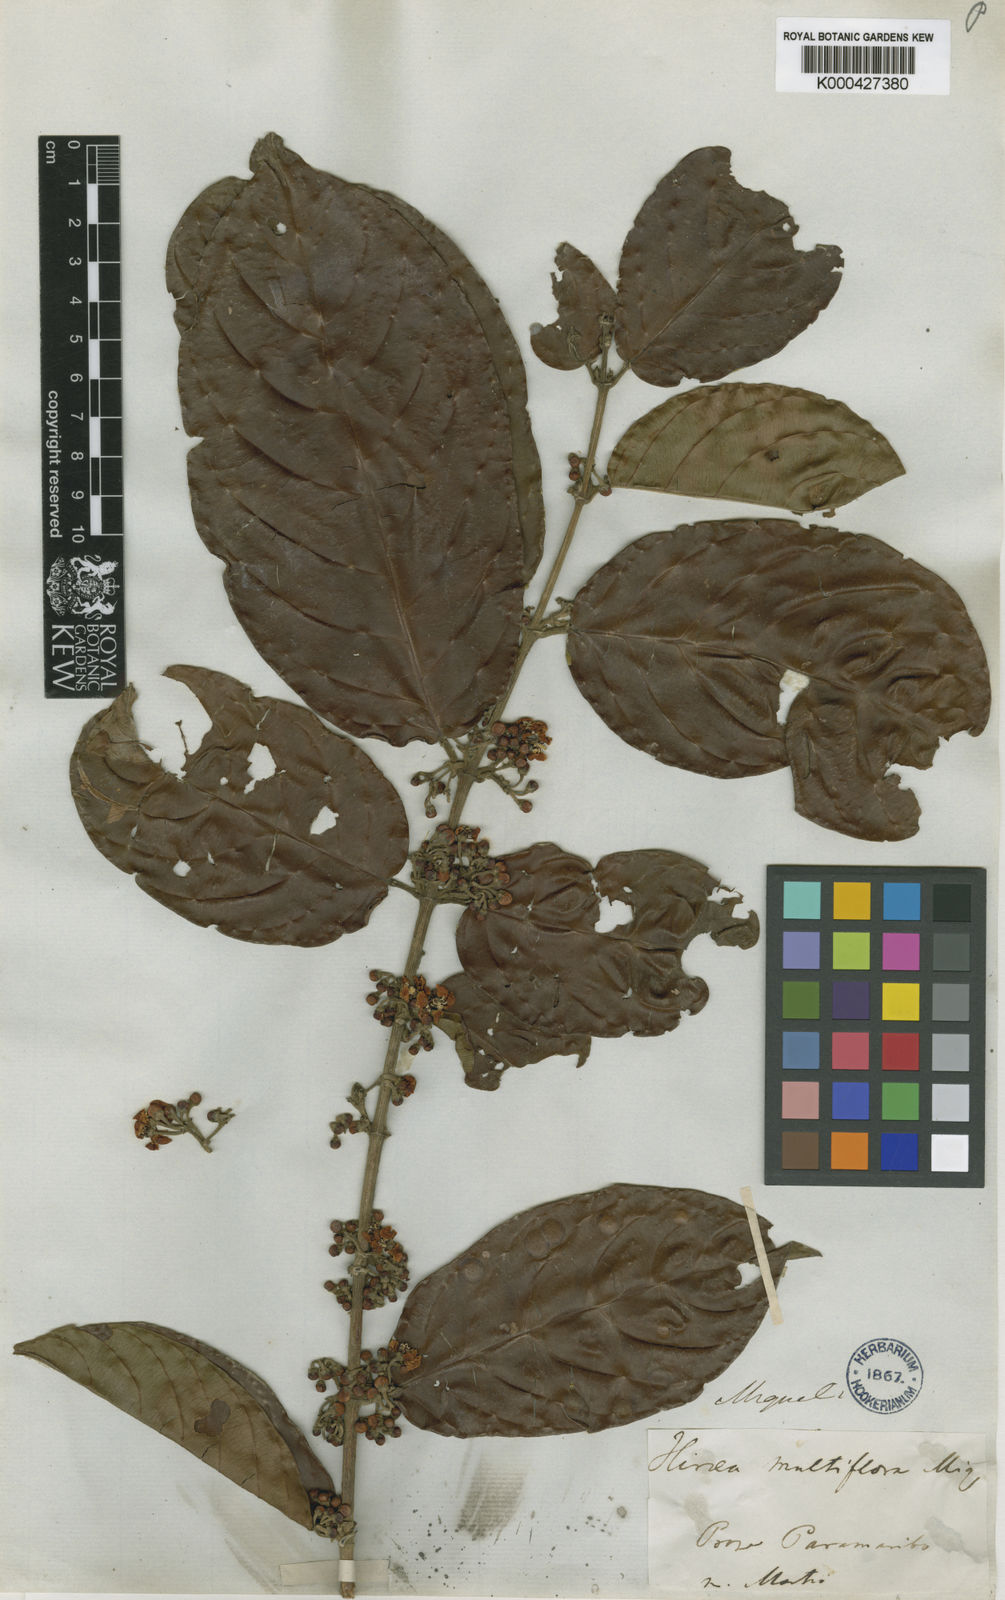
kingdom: Plantae
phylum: Tracheophyta
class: Magnoliopsida
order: Malpighiales
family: Malpighiaceae
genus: Hiraea
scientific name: Hiraea fagifolia
